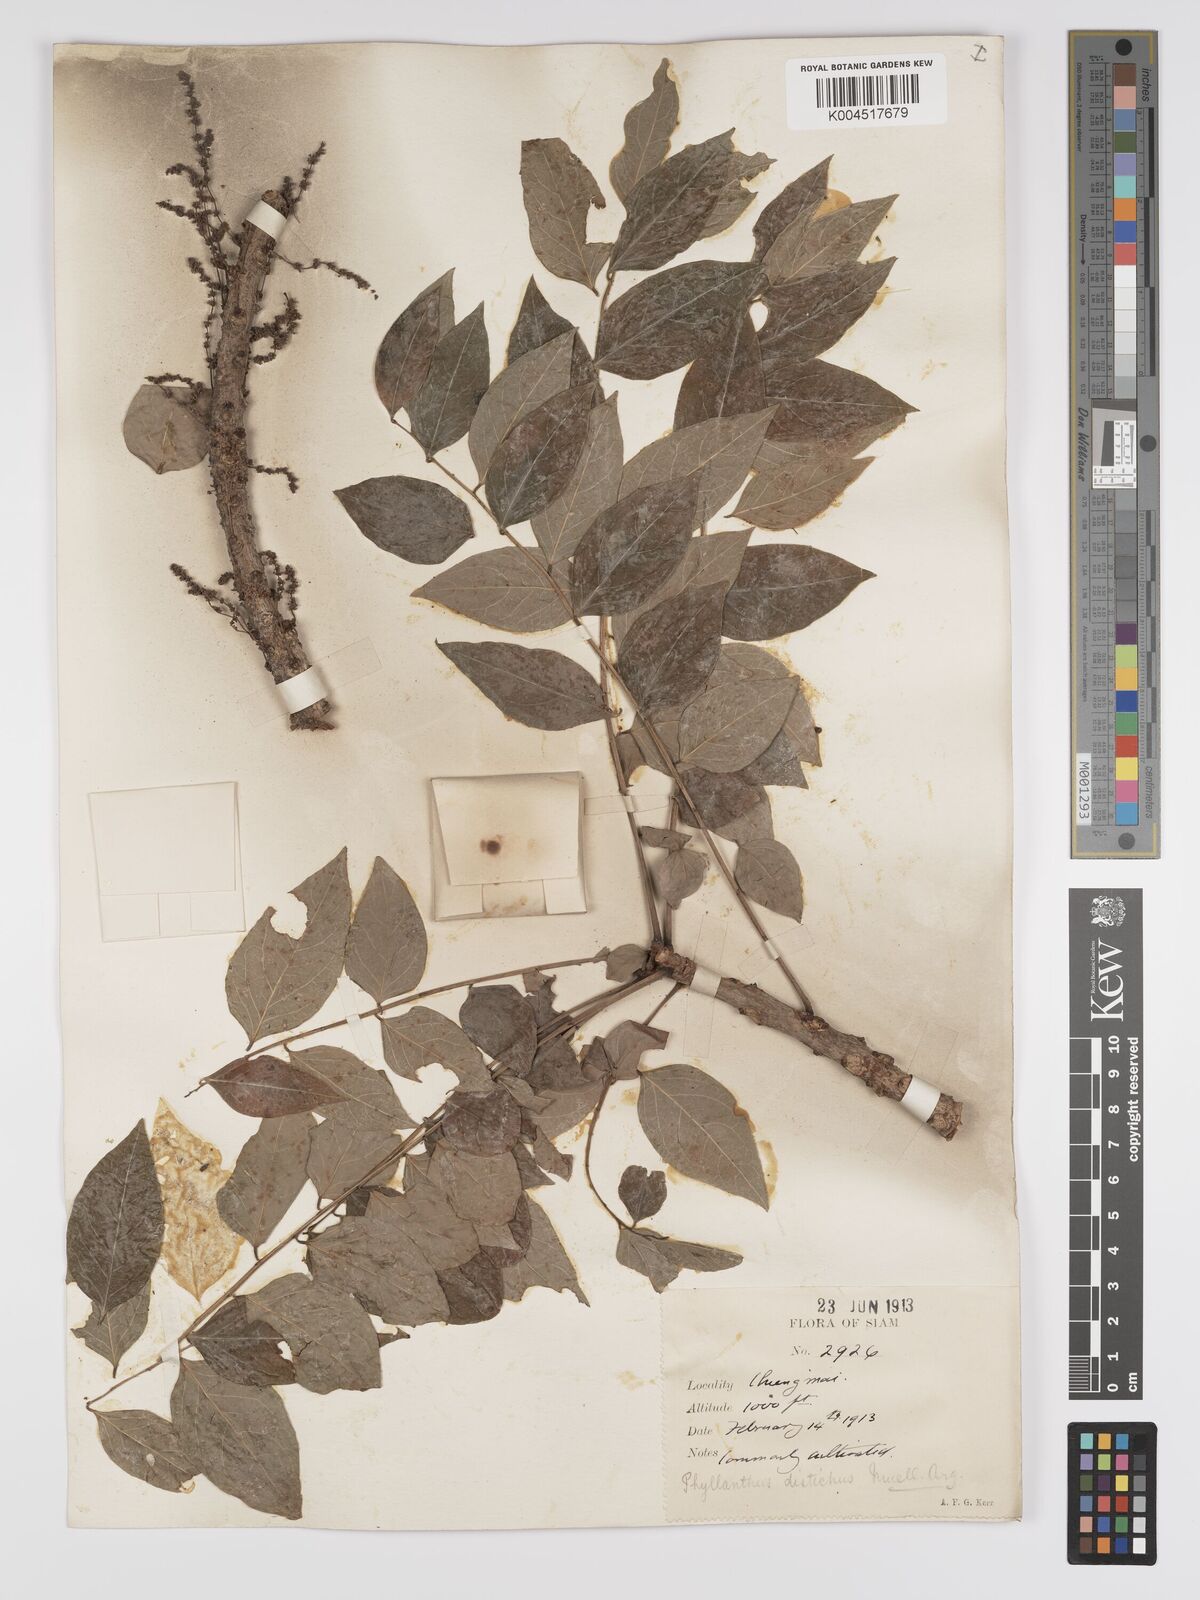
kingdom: Plantae
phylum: Tracheophyta
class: Magnoliopsida
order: Malpighiales
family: Phyllanthaceae
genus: Phyllanthus
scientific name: Phyllanthus acidus
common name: Tahitian gooseberry tree
